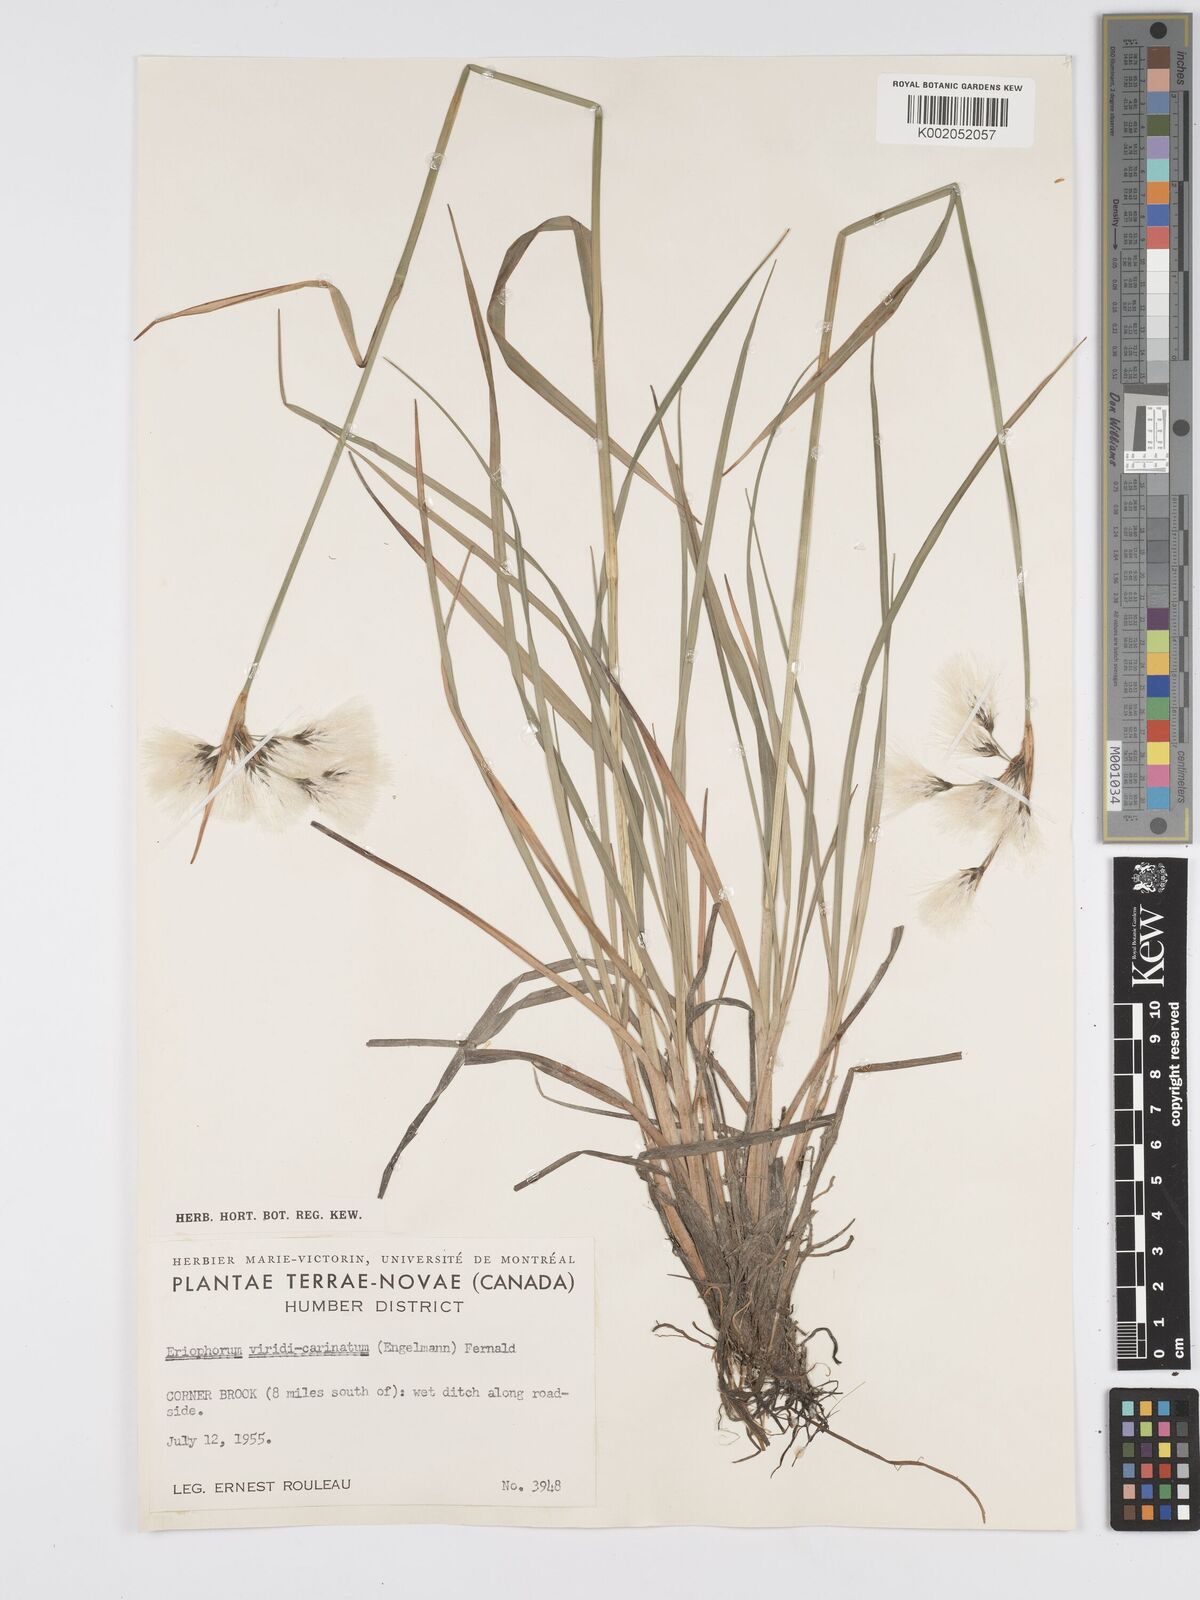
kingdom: Plantae
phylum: Tracheophyta
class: Liliopsida
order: Poales
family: Cyperaceae
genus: Eriophorum
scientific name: Eriophorum viridicarinatum
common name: Green-keeled cottongrass
